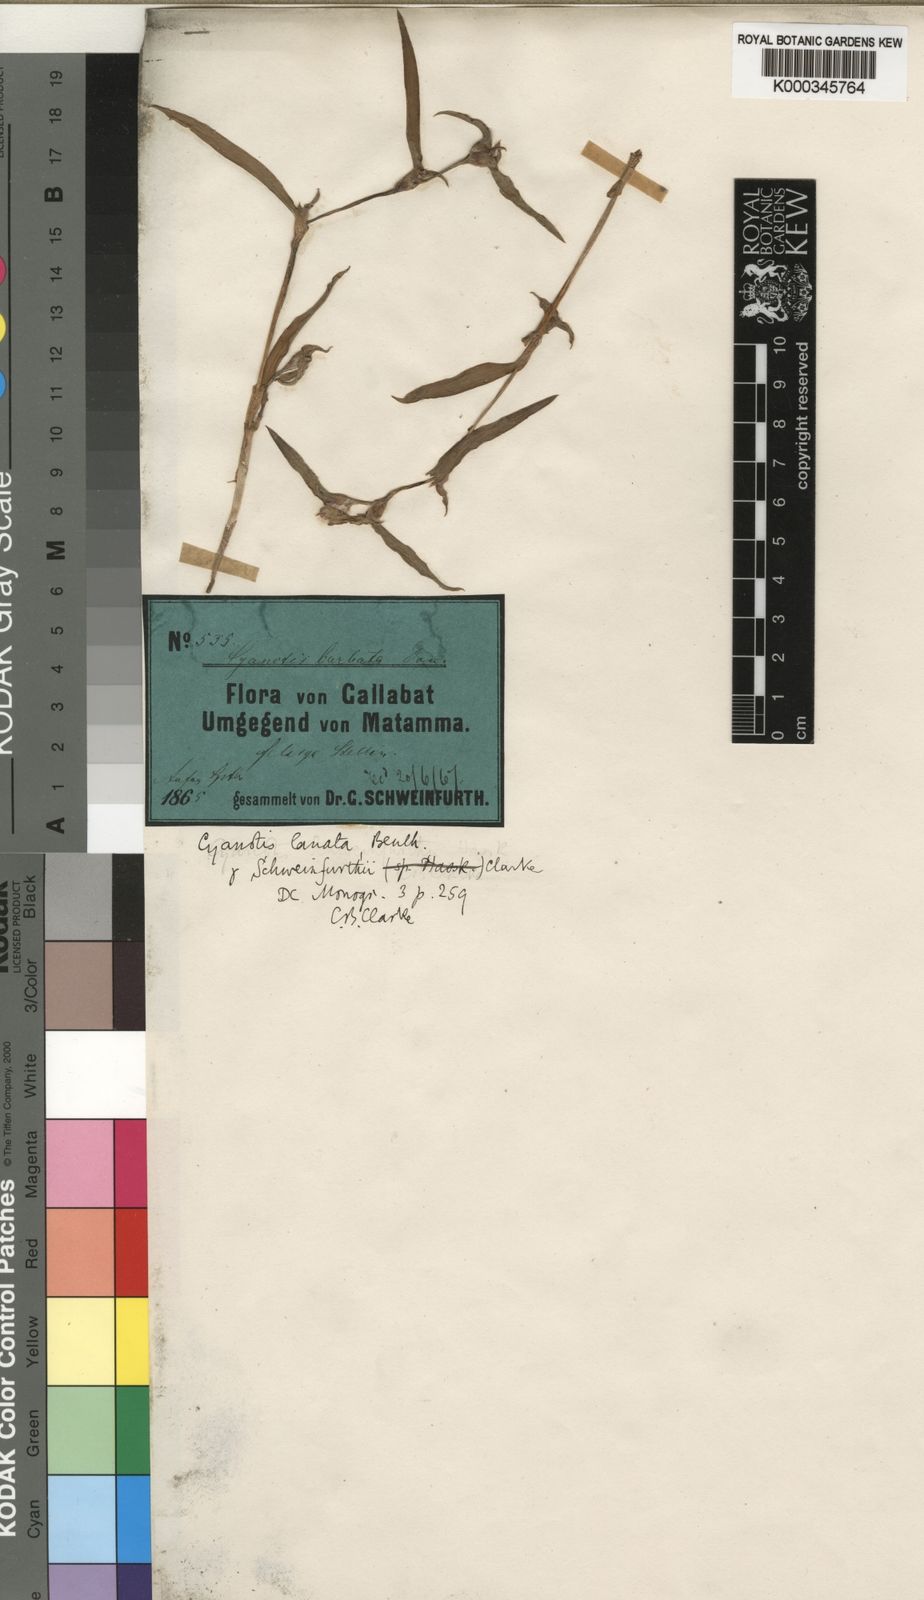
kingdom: Plantae
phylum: Tracheophyta
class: Liliopsida
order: Commelinales
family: Commelinaceae
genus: Cyanotis
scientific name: Cyanotis lanata
